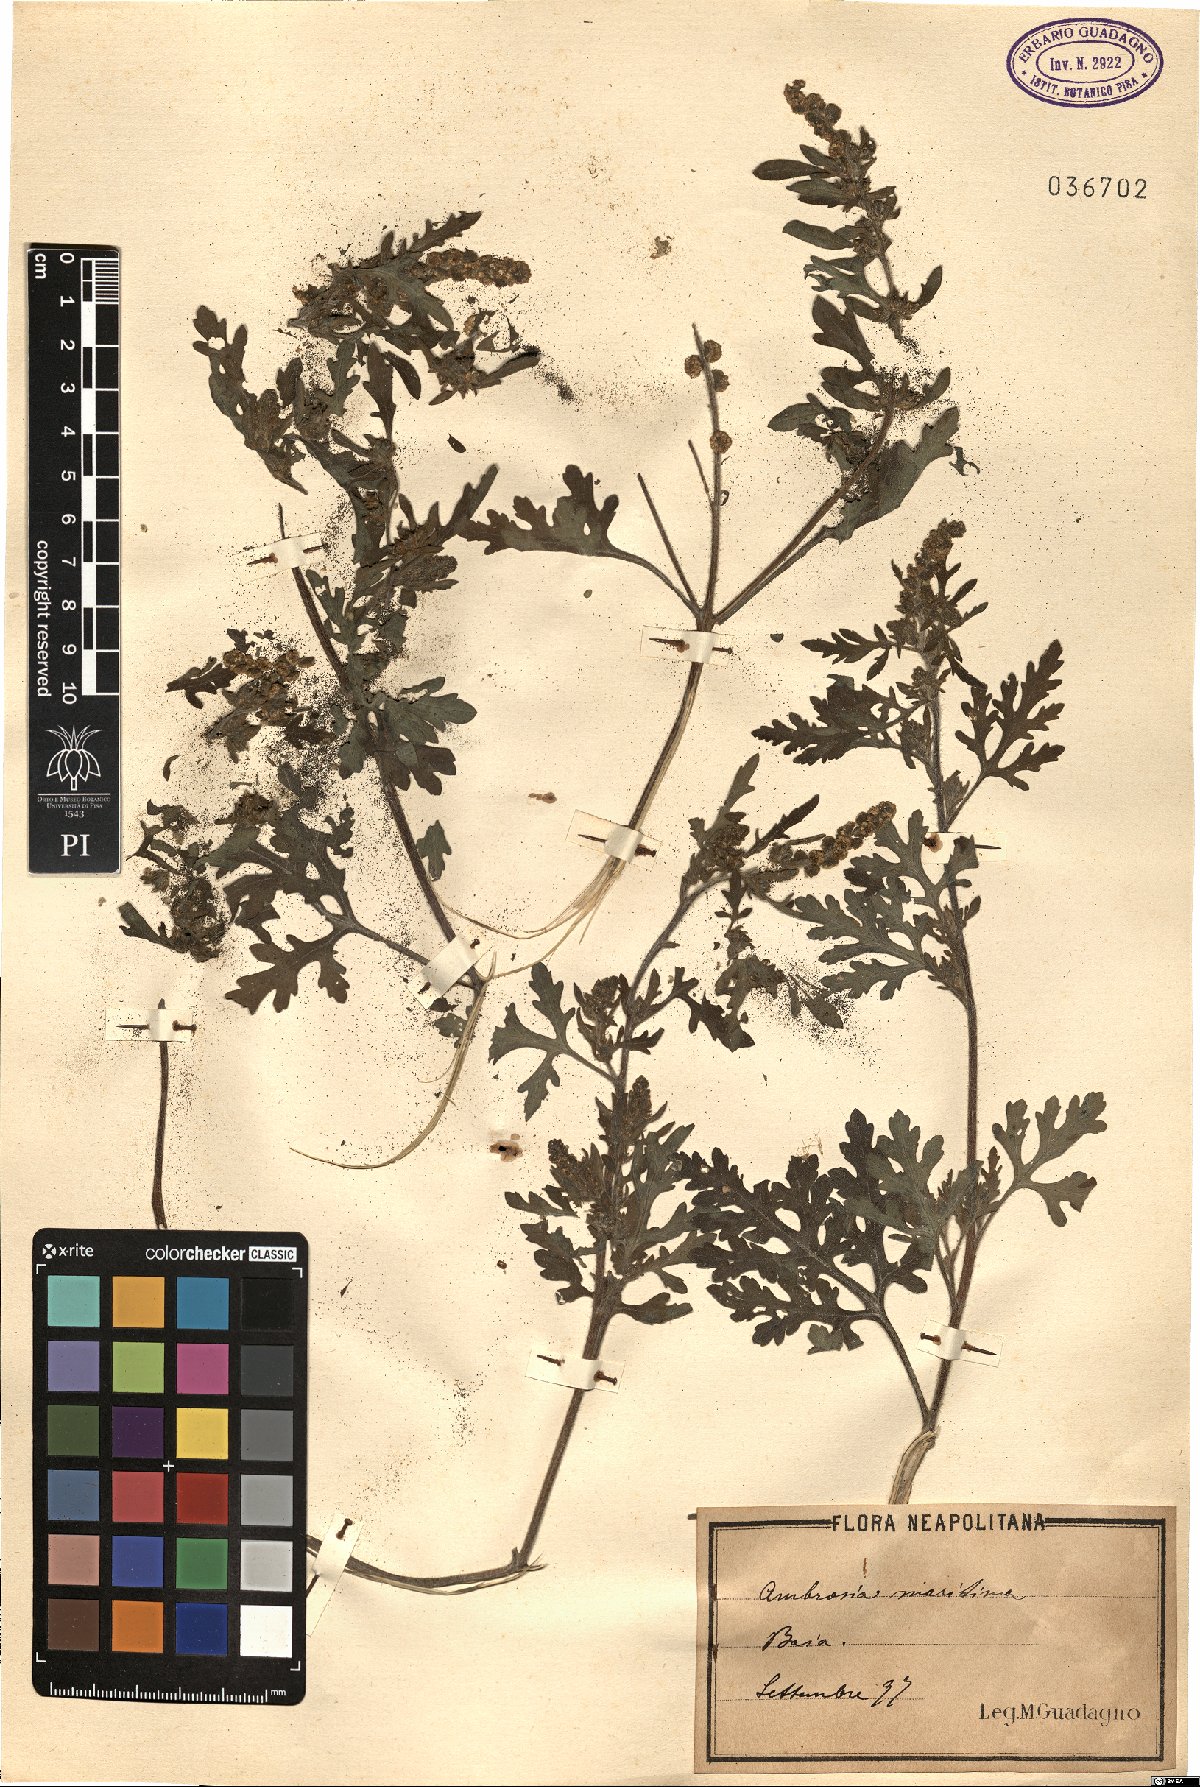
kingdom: Plantae
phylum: Tracheophyta
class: Magnoliopsida
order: Asterales
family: Asteraceae
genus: Ambrosia
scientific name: Ambrosia maritima
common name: Sea ambrosia
